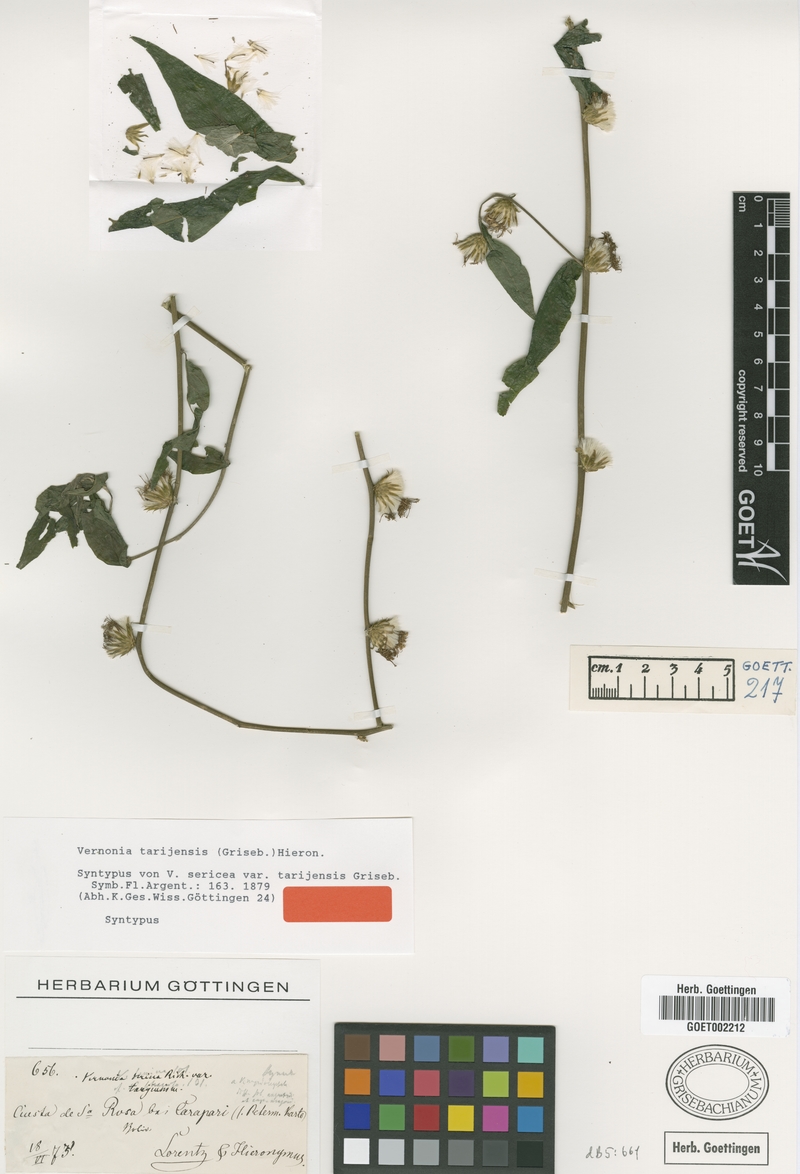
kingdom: Plantae
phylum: Tracheophyta
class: Magnoliopsida
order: Asterales
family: Asteraceae
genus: Lepidaploa
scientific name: Lepidaploa tarijensis
